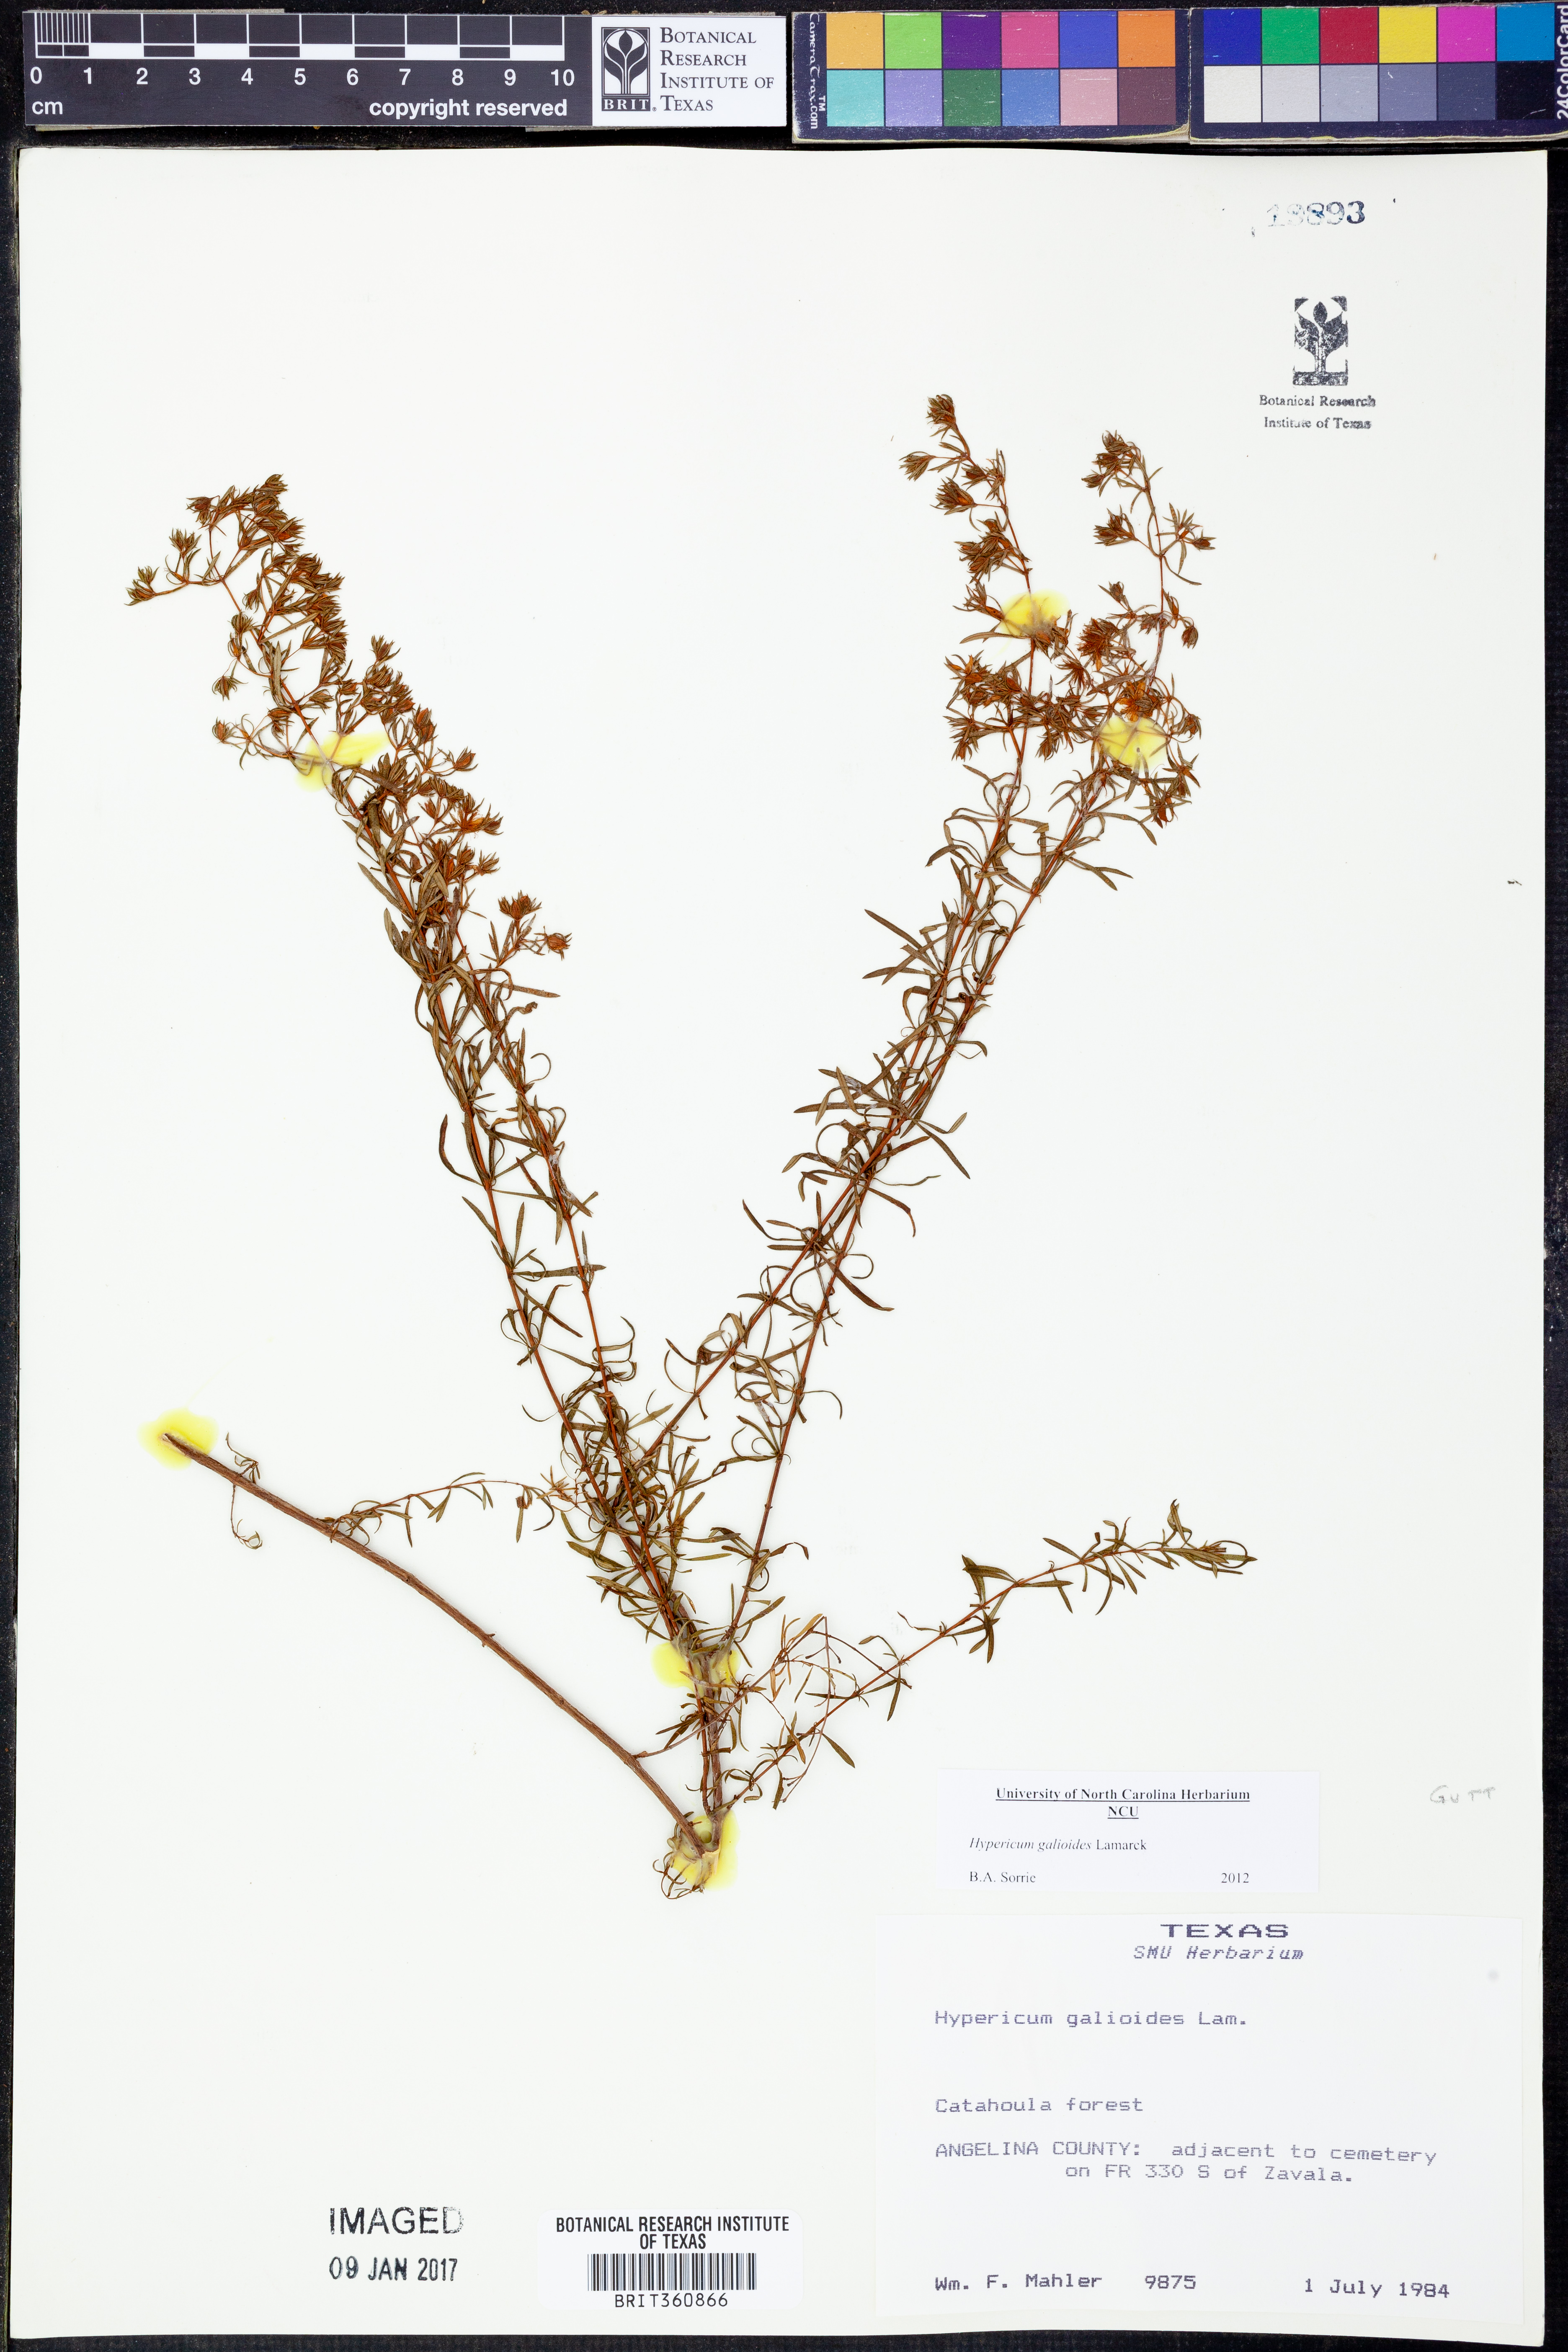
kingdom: Plantae
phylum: Tracheophyta
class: Magnoliopsida
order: Malpighiales
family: Hypericaceae
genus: Hypericum
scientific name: Hypericum galioides
